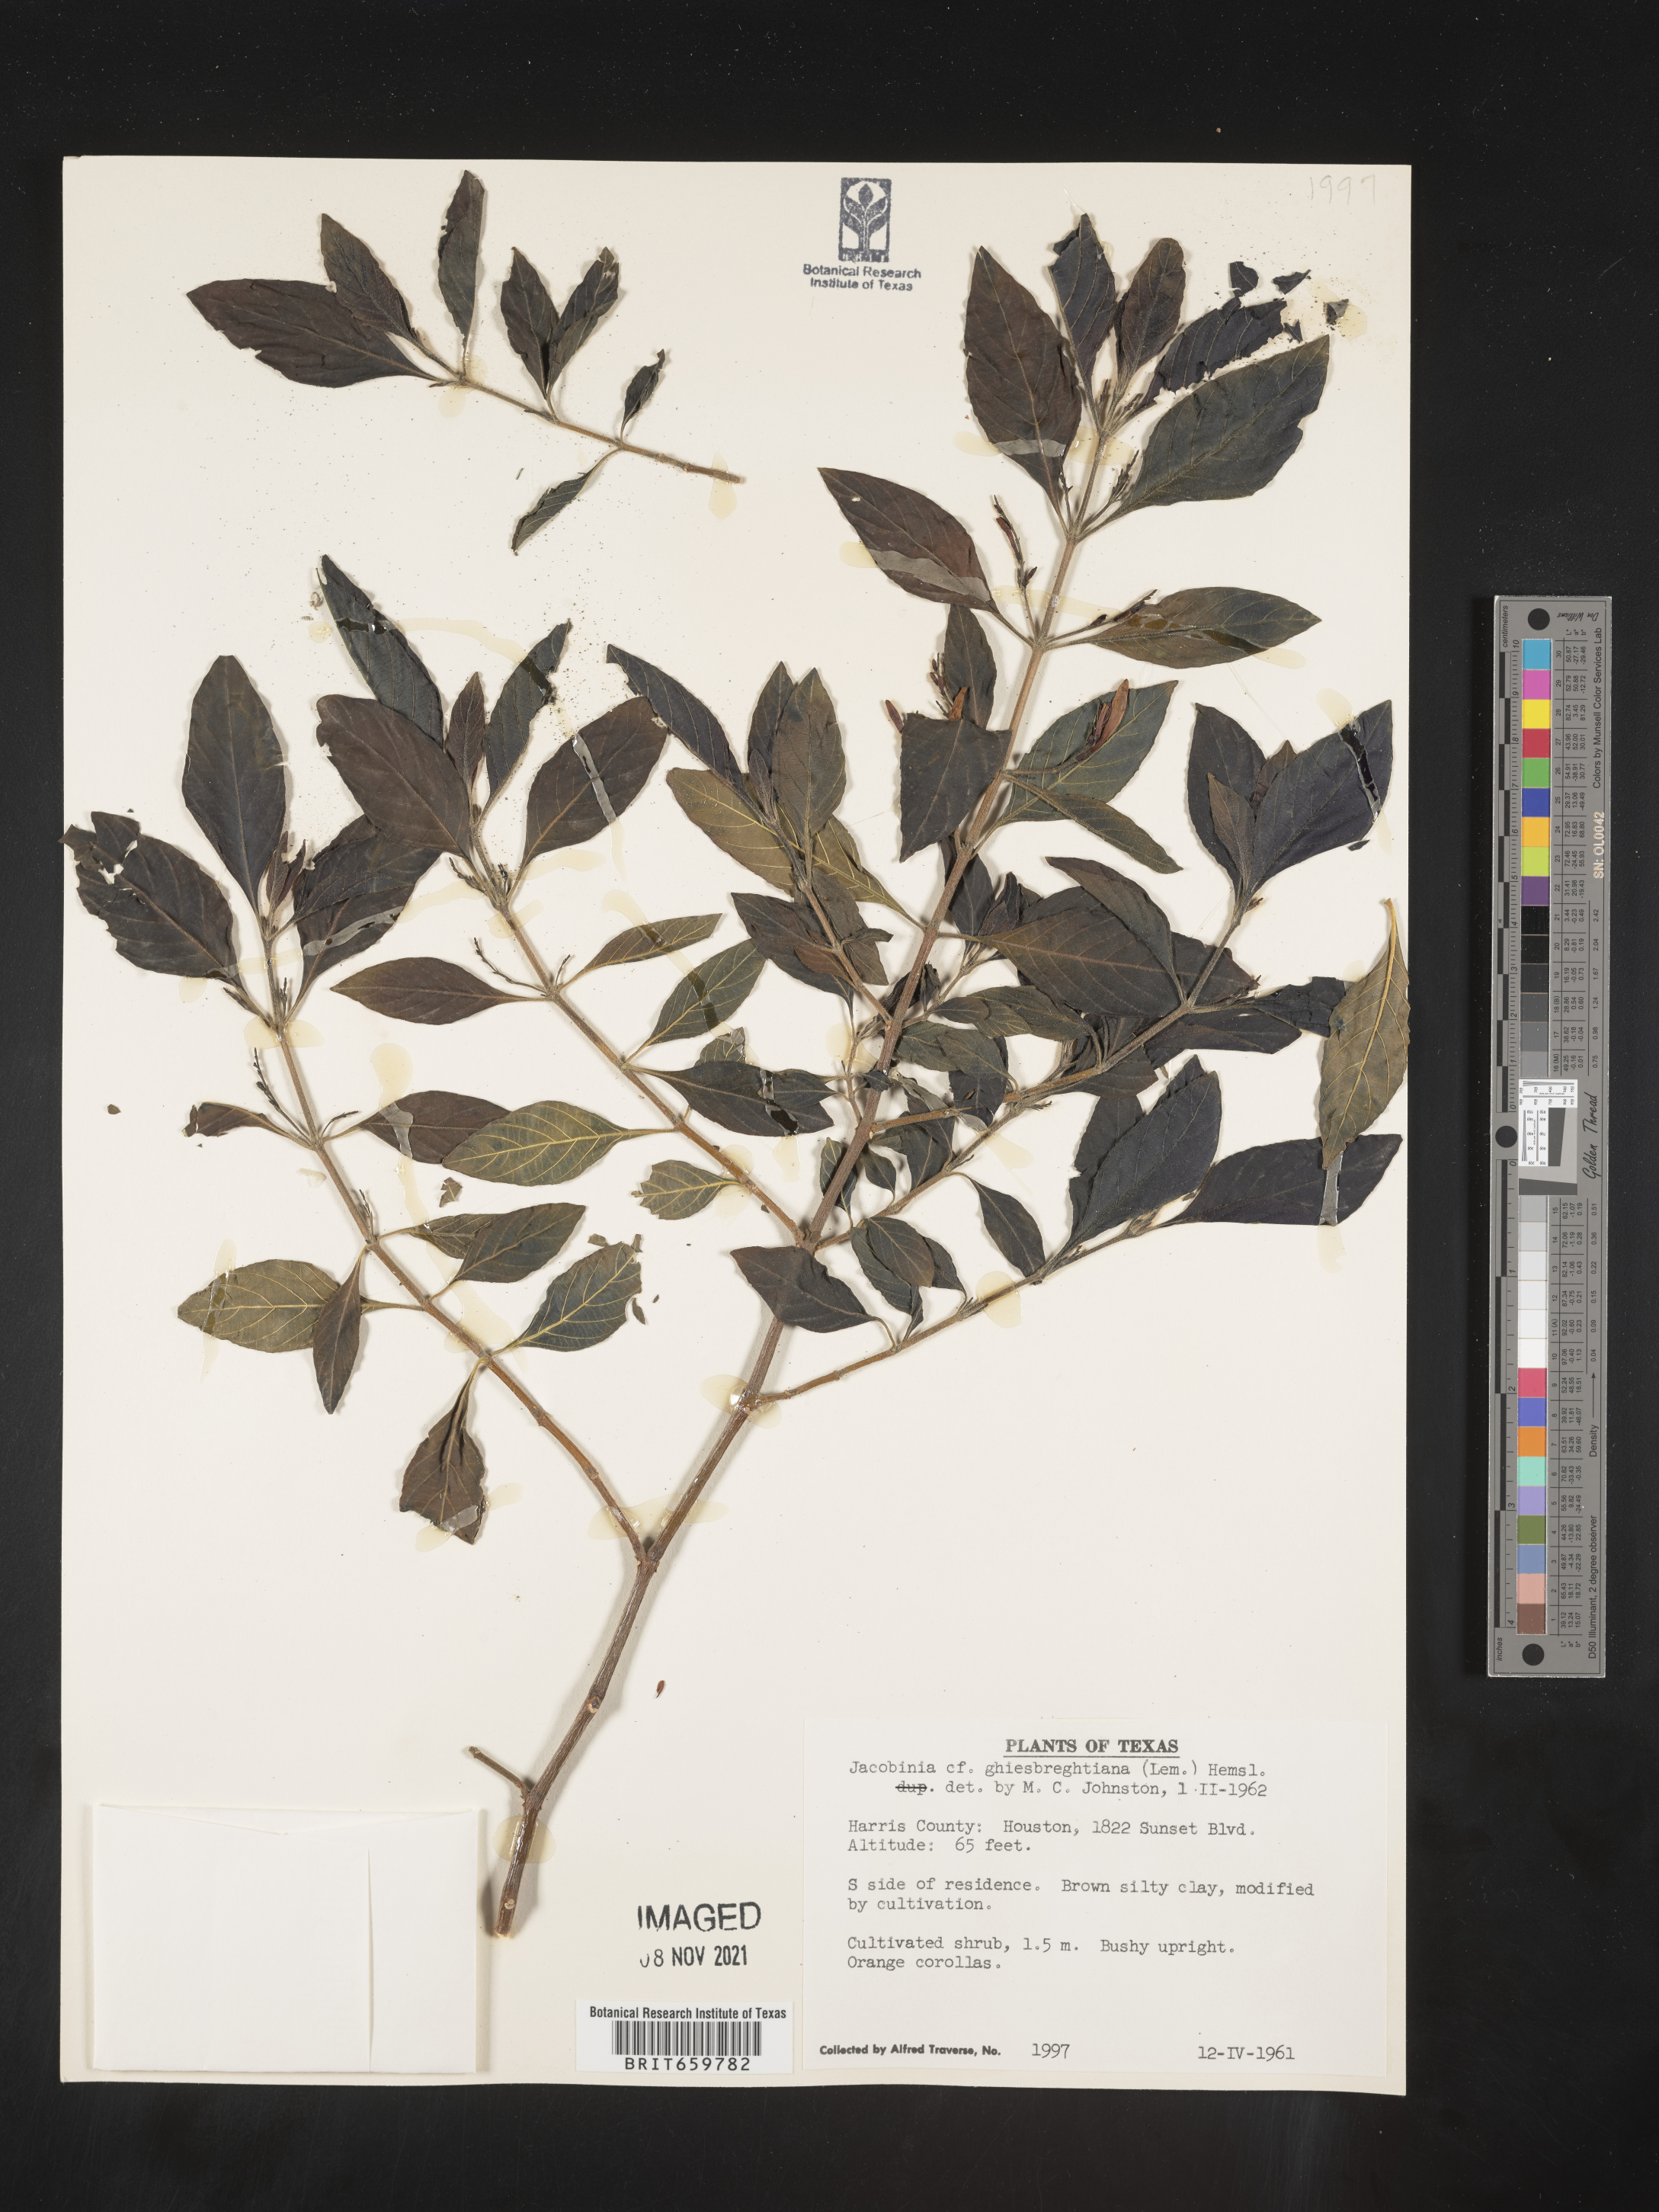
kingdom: Plantae
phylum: Tracheophyta
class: Magnoliopsida
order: Lamiales
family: Acanthaceae
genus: Justicia
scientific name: Justicia
